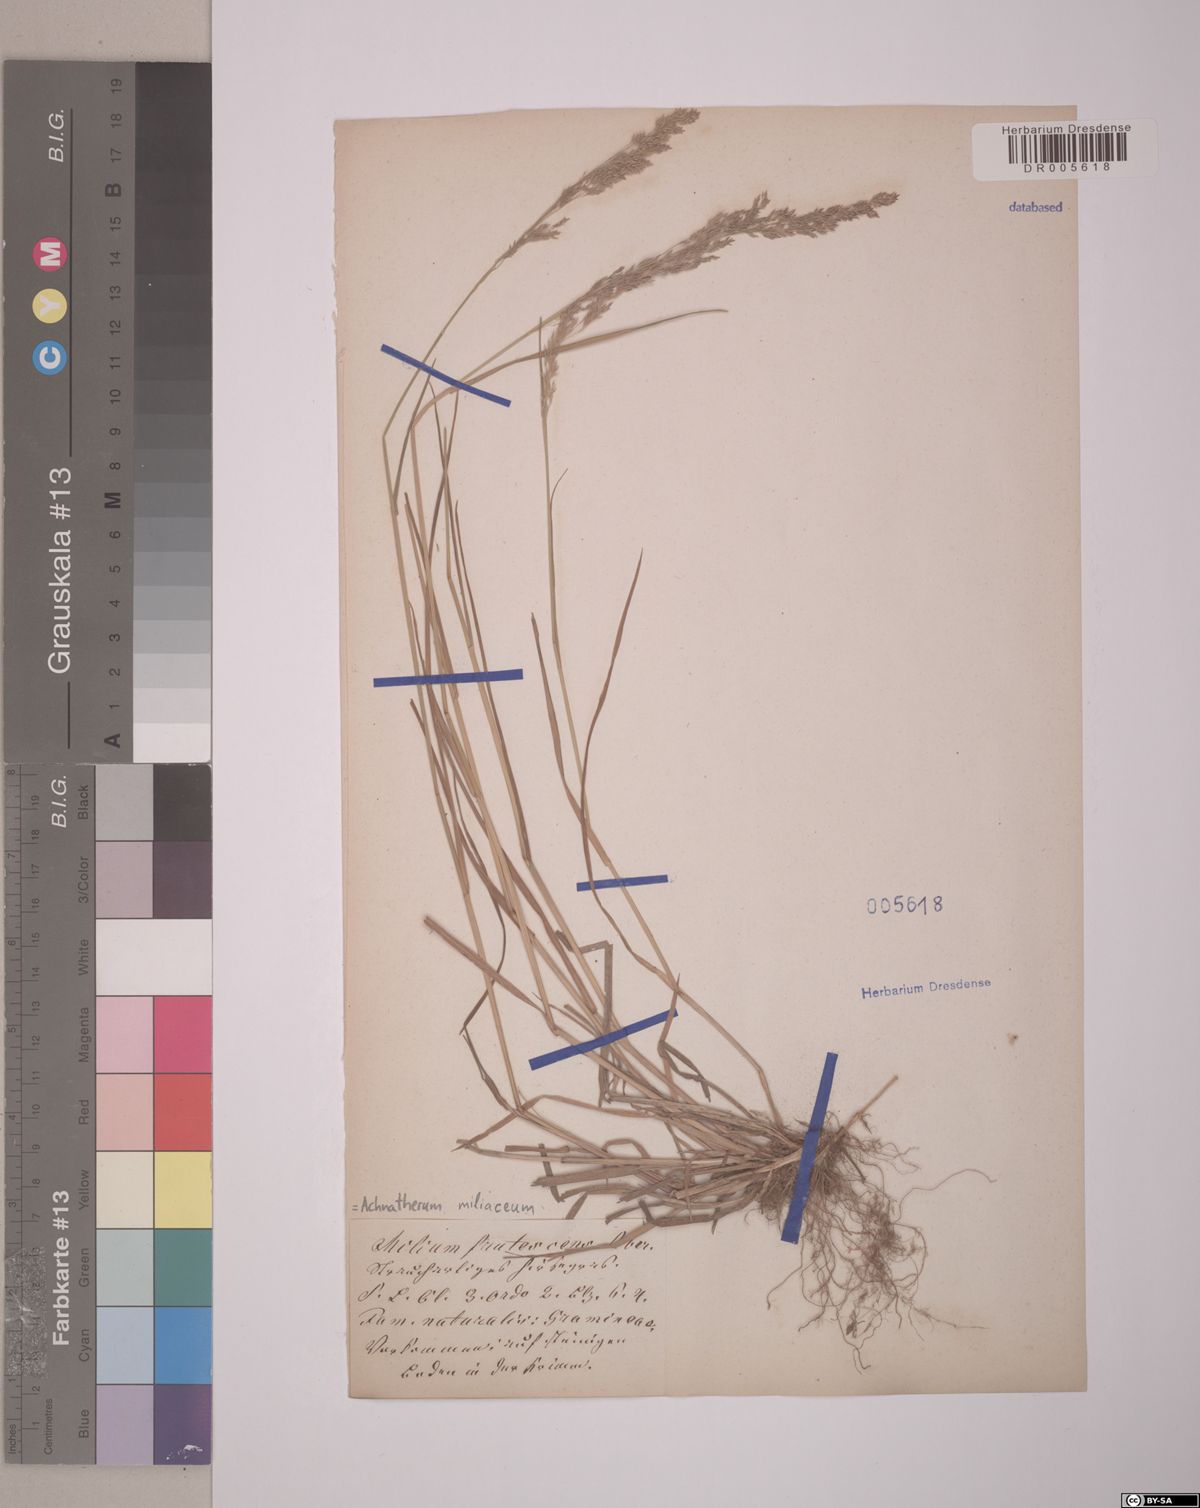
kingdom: Plantae
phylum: Tracheophyta
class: Liliopsida
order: Poales
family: Poaceae
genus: Oloptum
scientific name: Oloptum miliaceum
